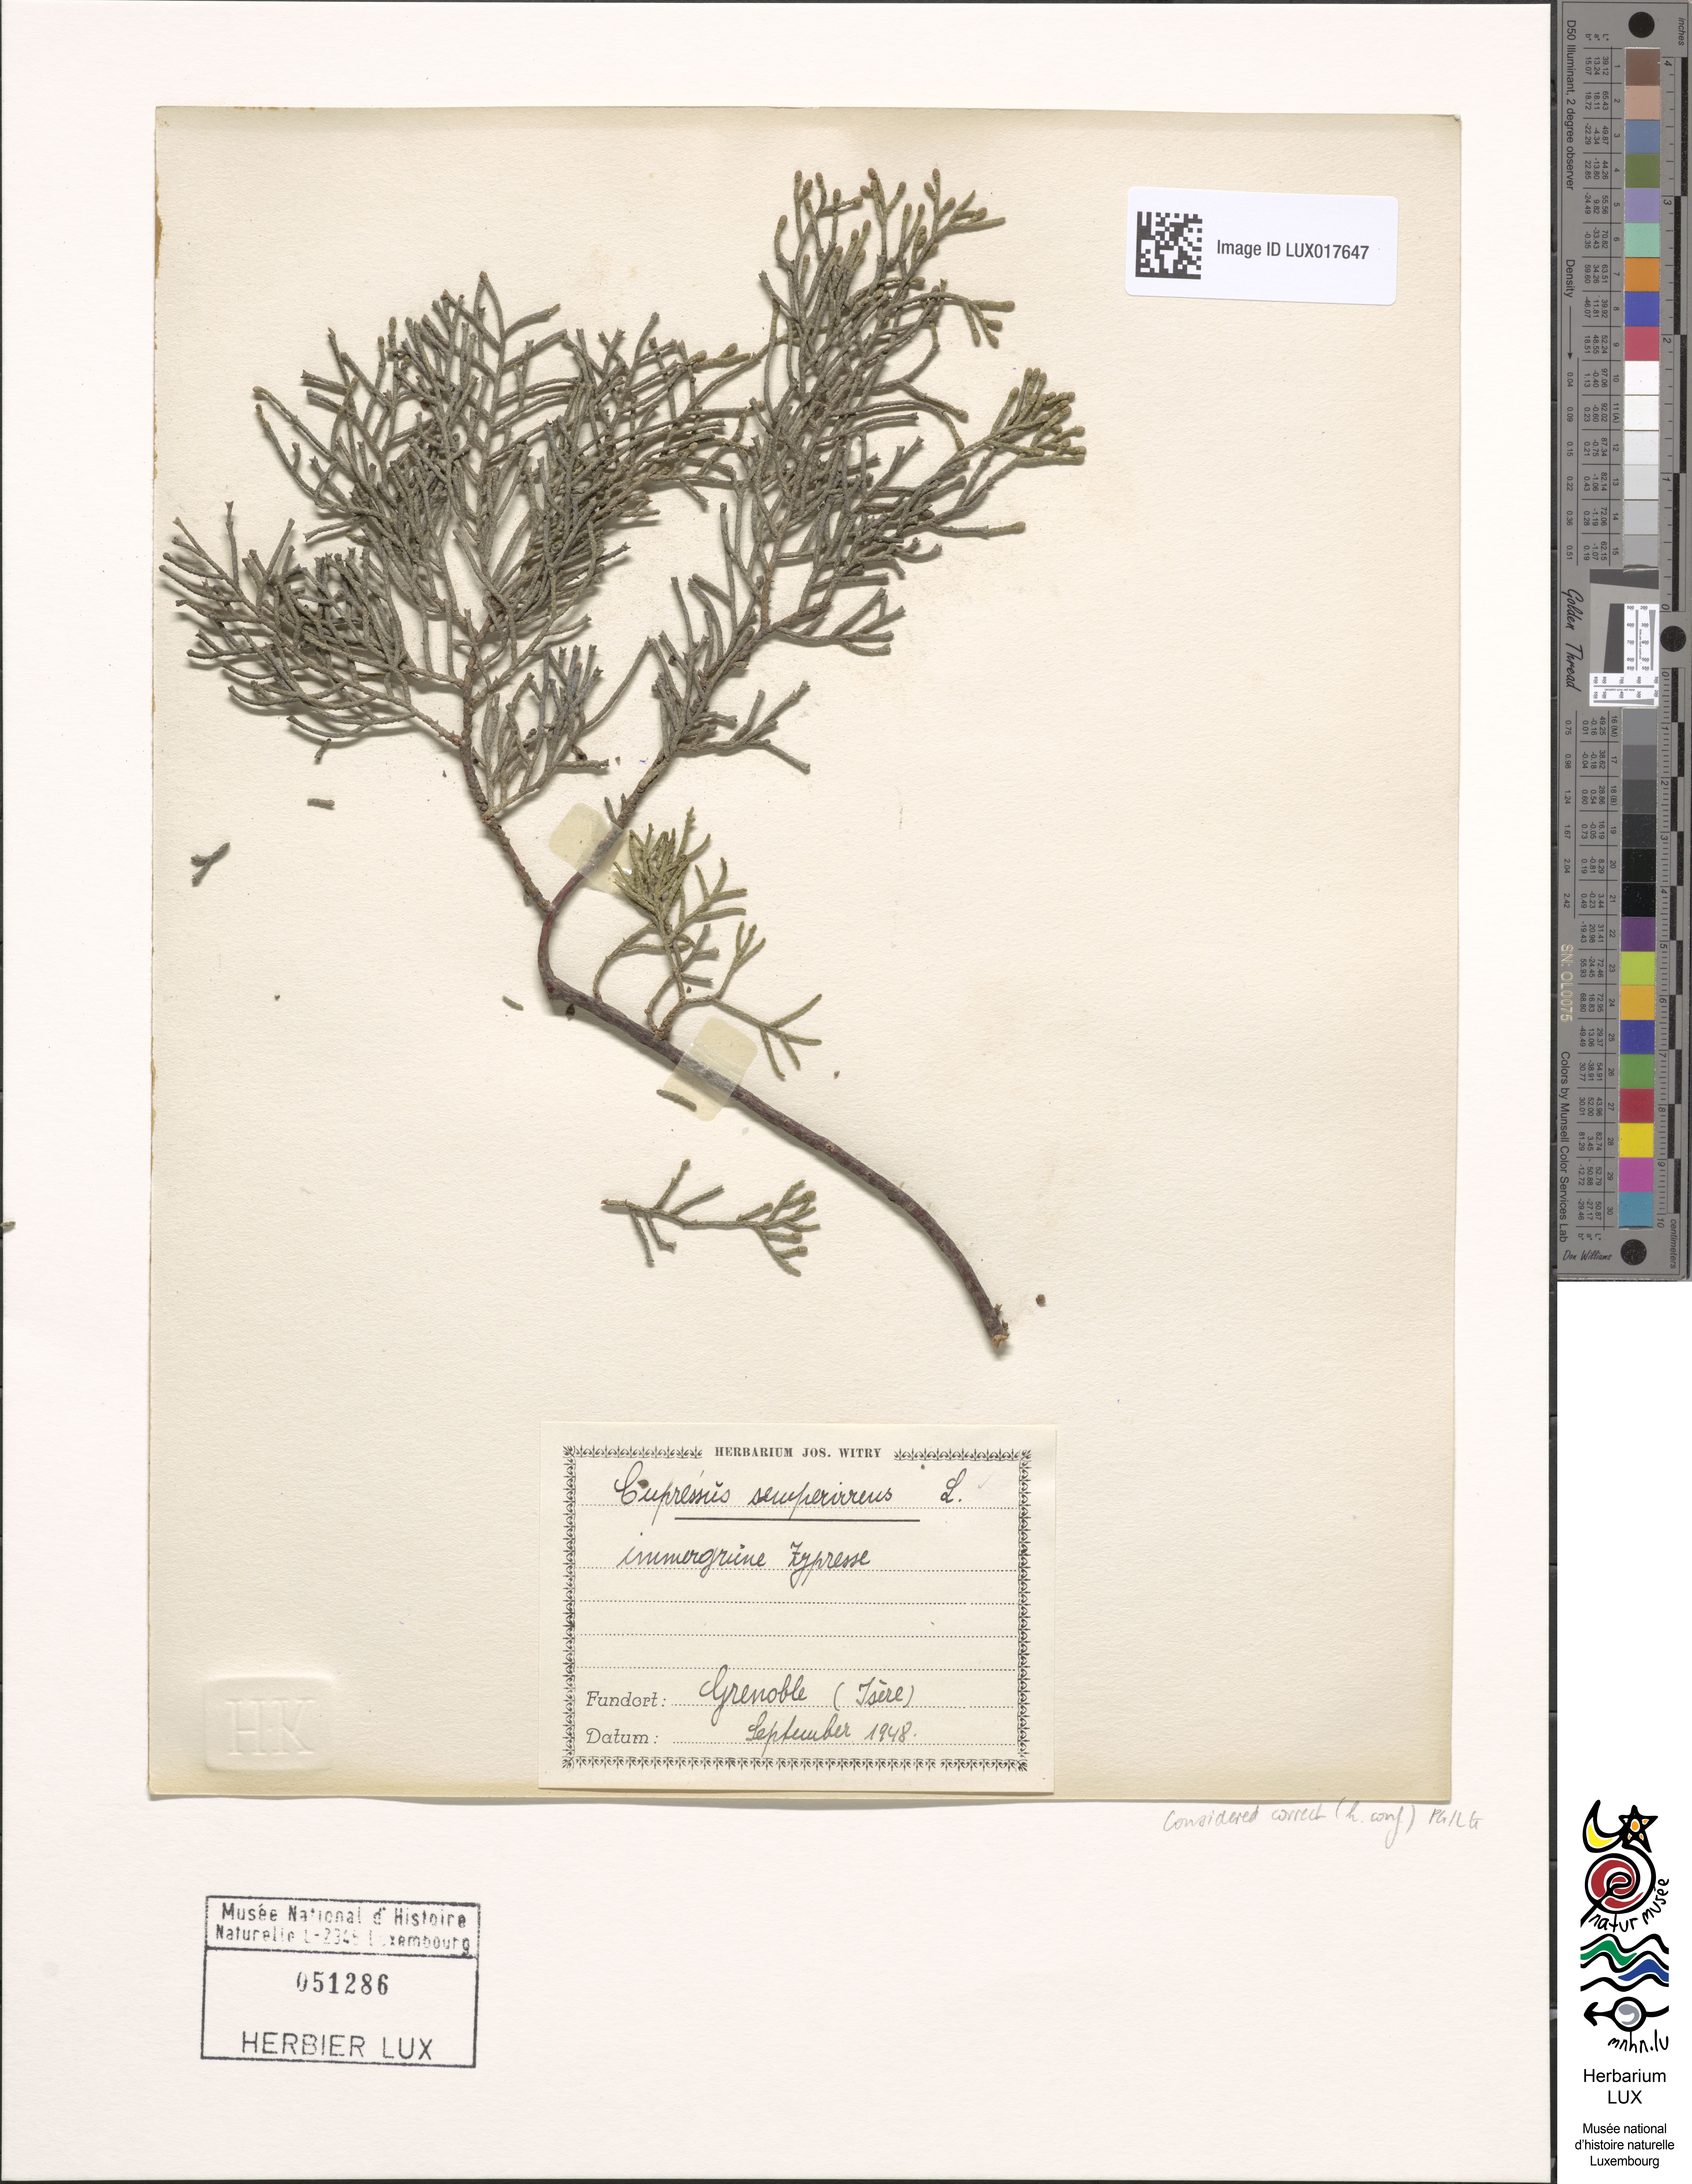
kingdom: Plantae
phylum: Tracheophyta
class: Pinopsida
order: Pinales
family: Cupressaceae
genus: Cupressus
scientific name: Cupressus sempervirens
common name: Italian cypress
